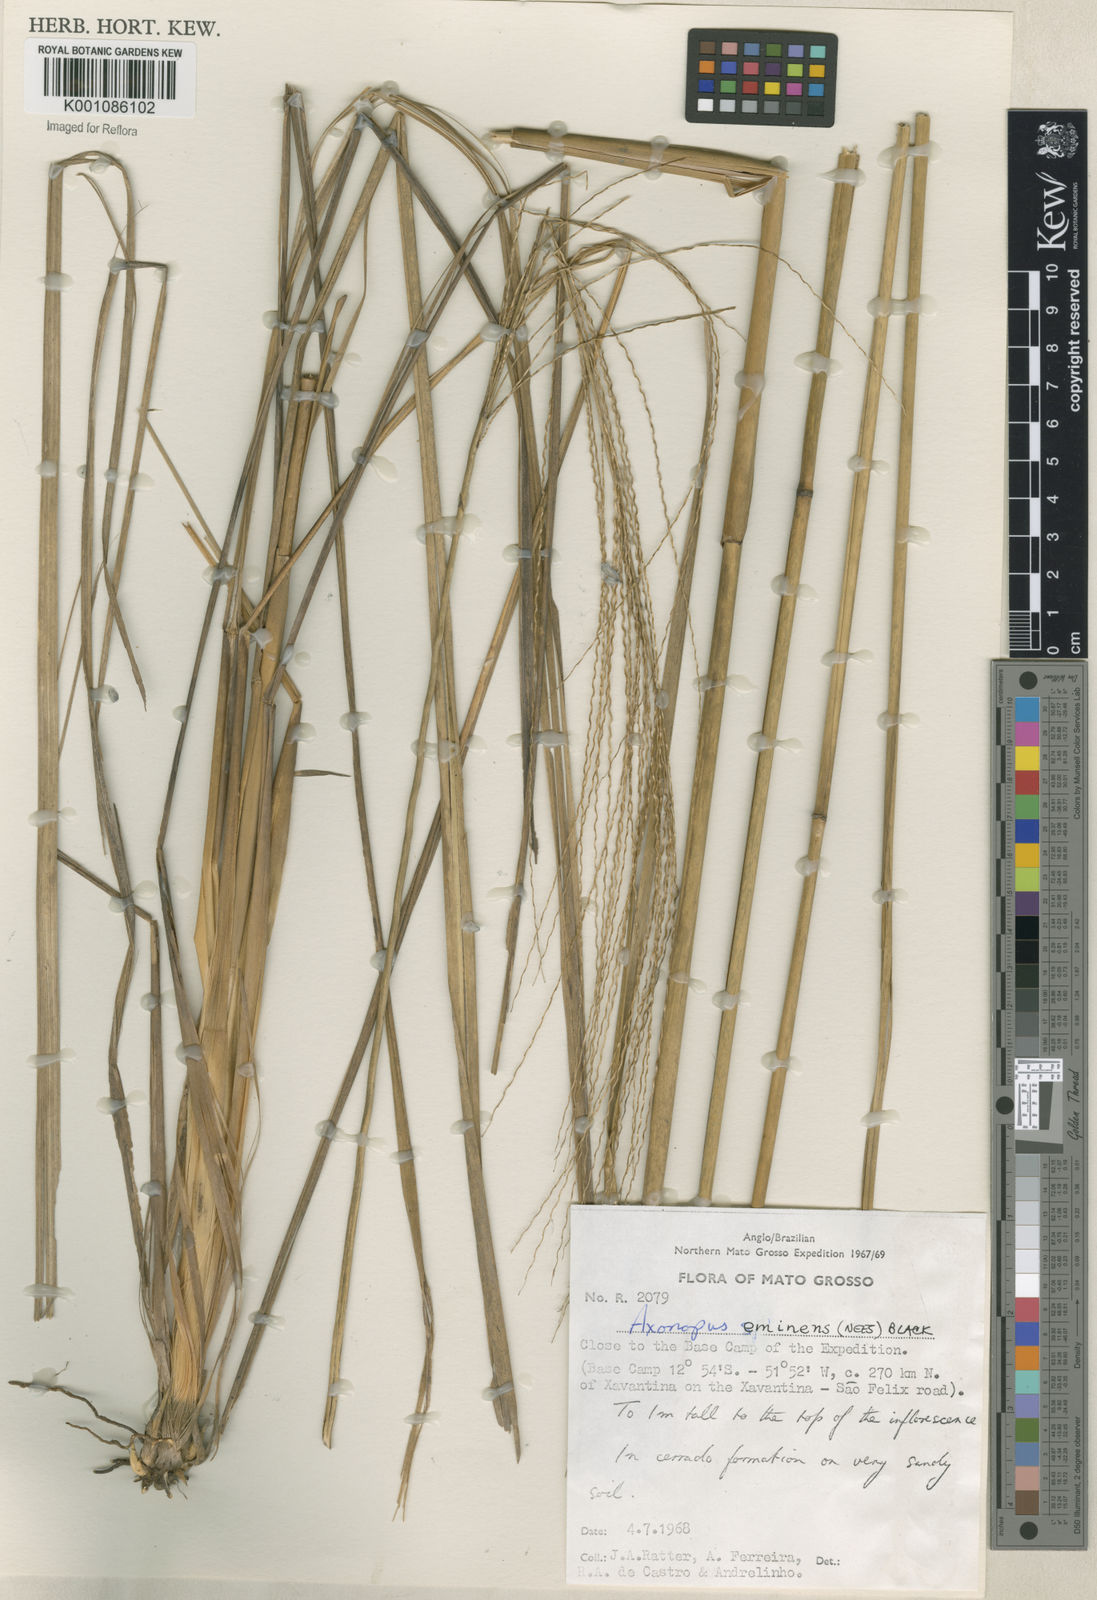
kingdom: Plantae
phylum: Tracheophyta
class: Liliopsida
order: Poales
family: Poaceae
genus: Axonopus
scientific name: Axonopus eminens
